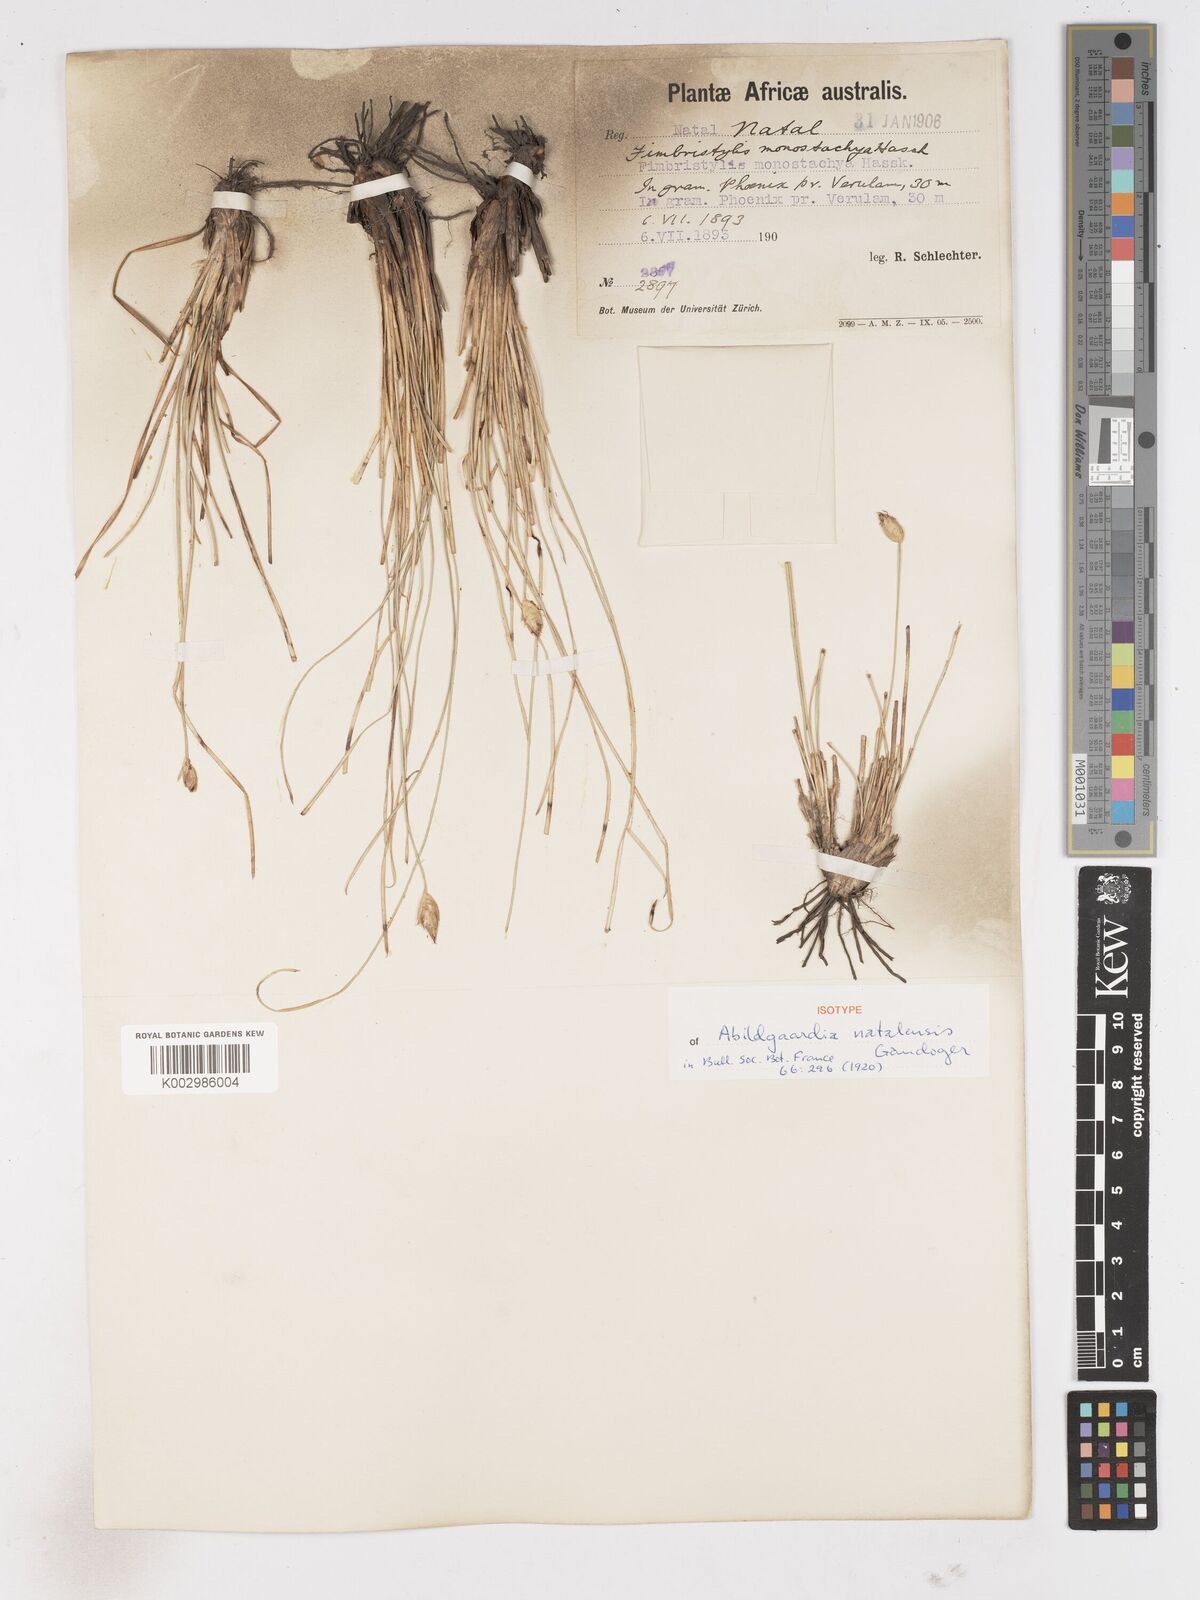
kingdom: Plantae
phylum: Tracheophyta
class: Liliopsida
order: Poales
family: Cyperaceae
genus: Abildgaardia
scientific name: Abildgaardia ovata
